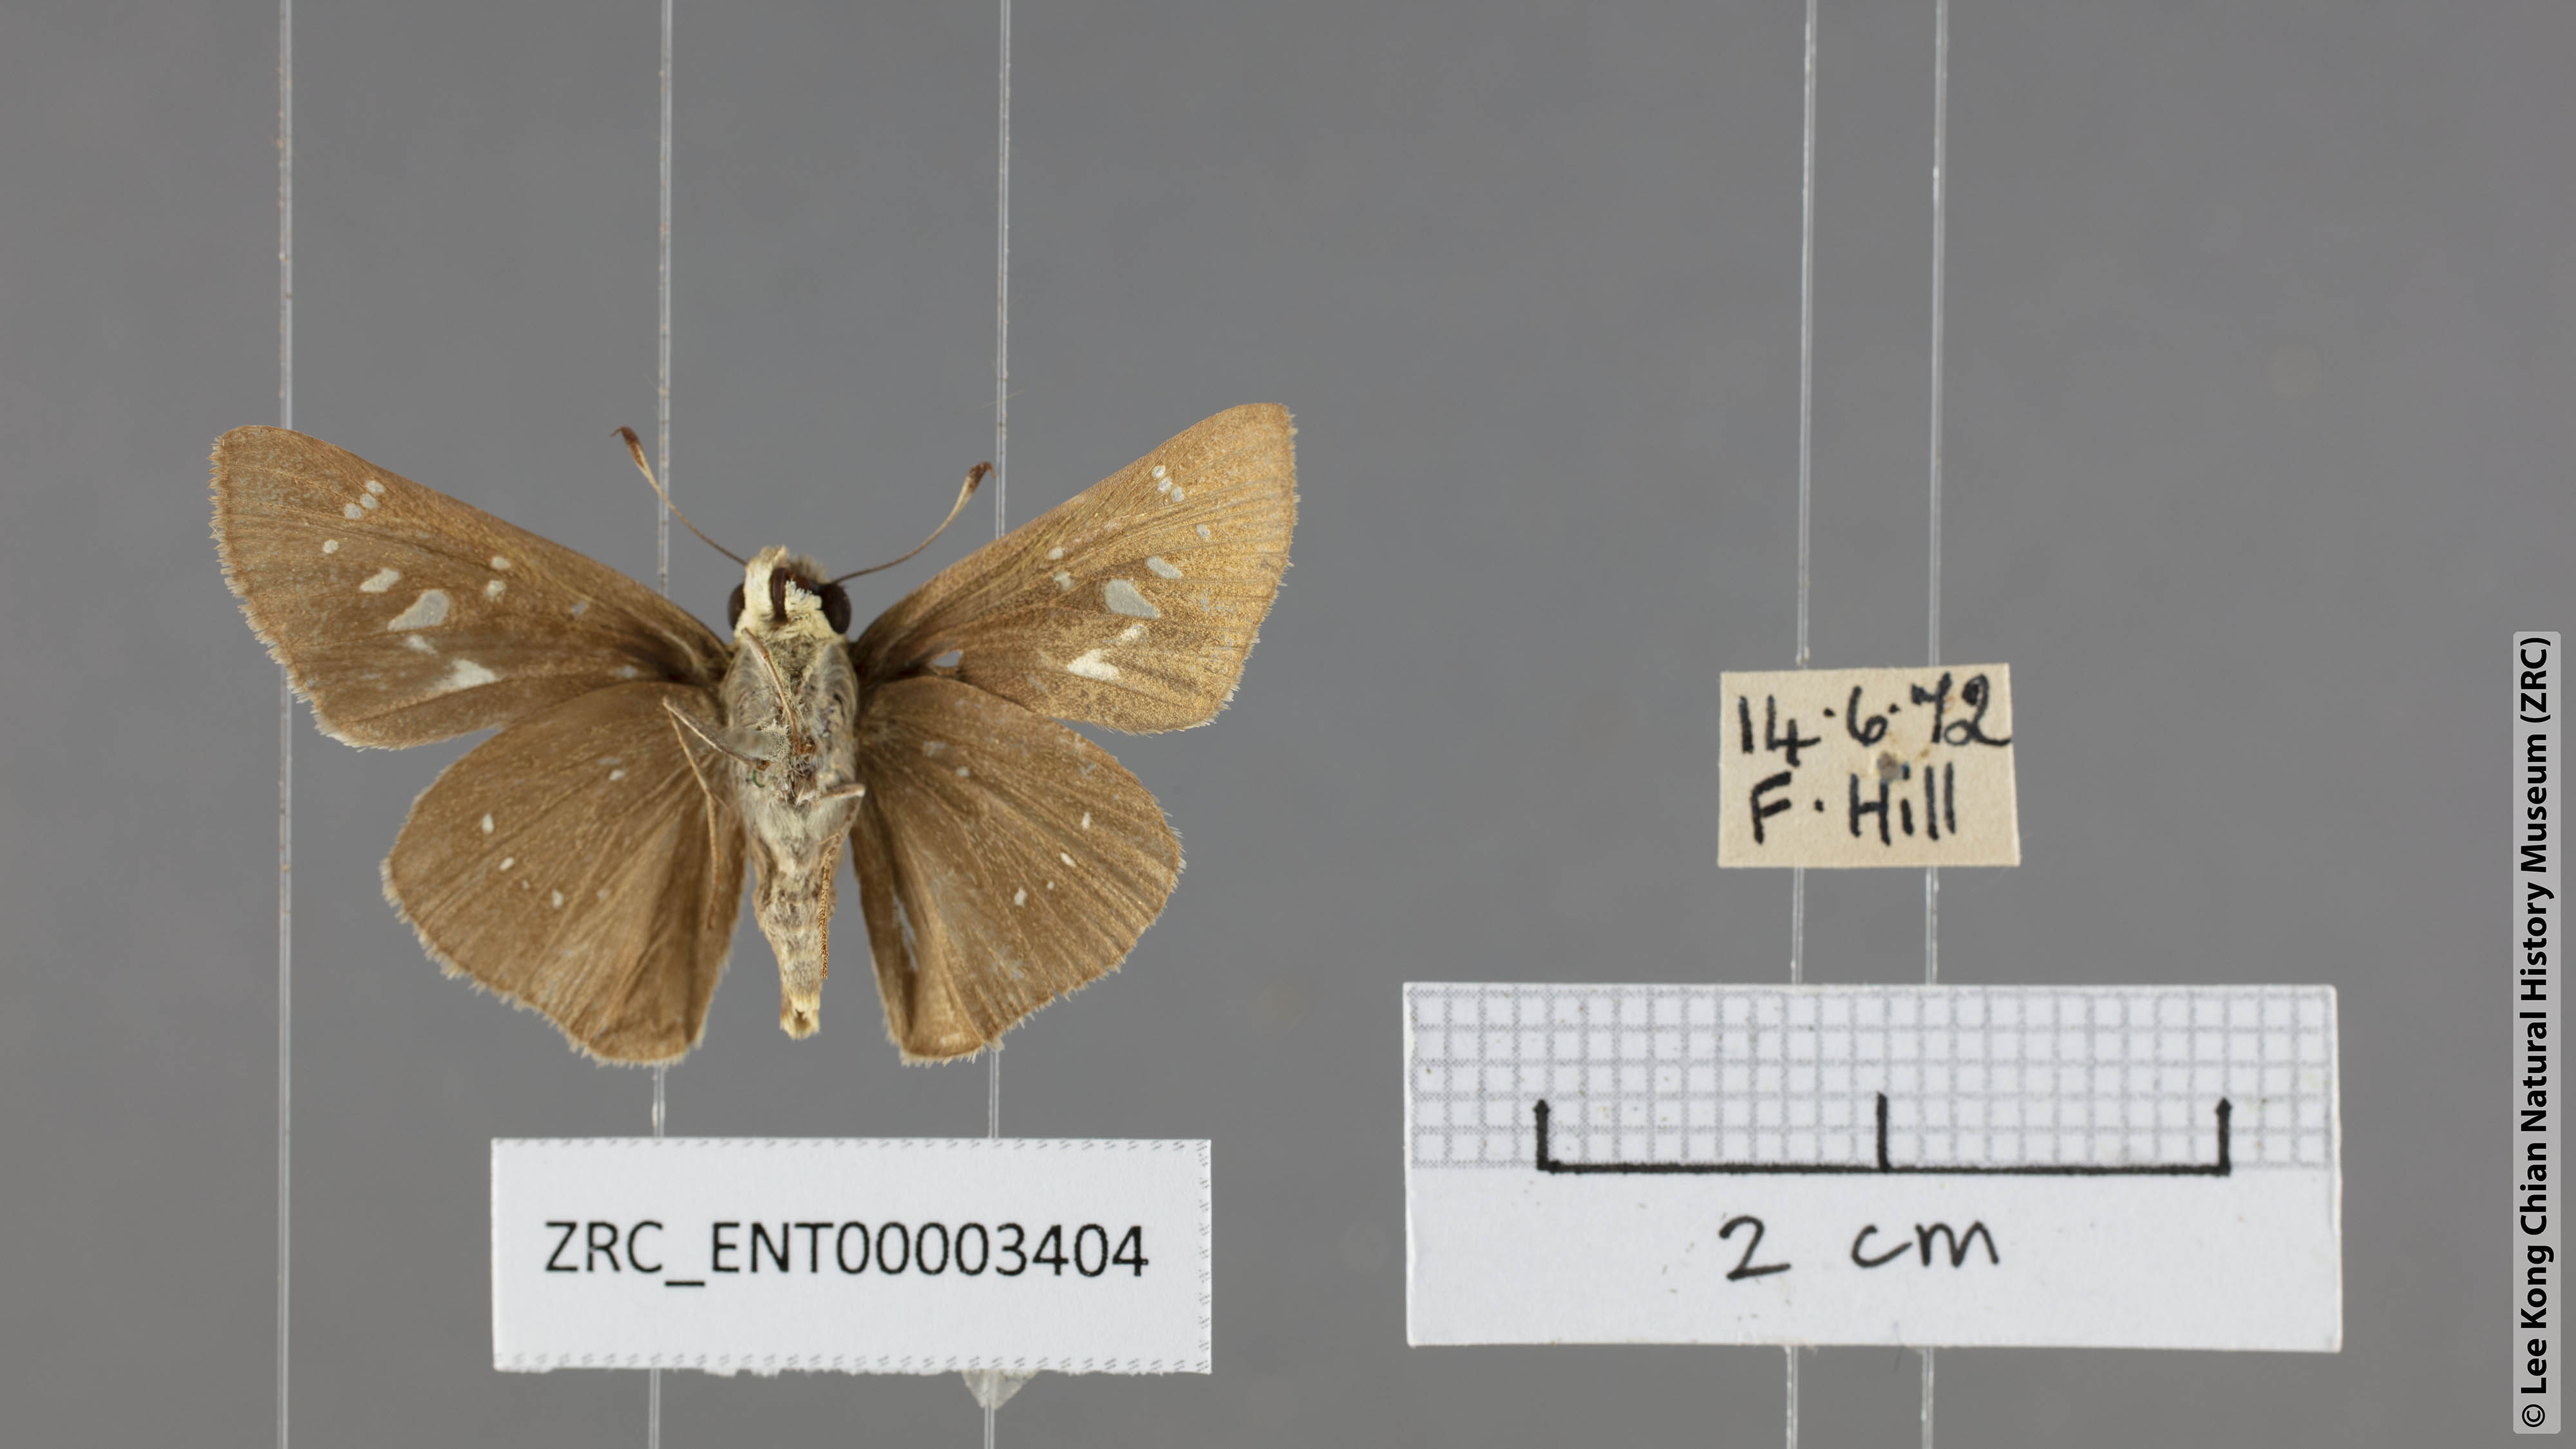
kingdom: Animalia
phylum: Arthropoda
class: Insecta
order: Lepidoptera
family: Hesperiidae
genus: Pelopidas
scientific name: Pelopidas mathias
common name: Black-branded swift
